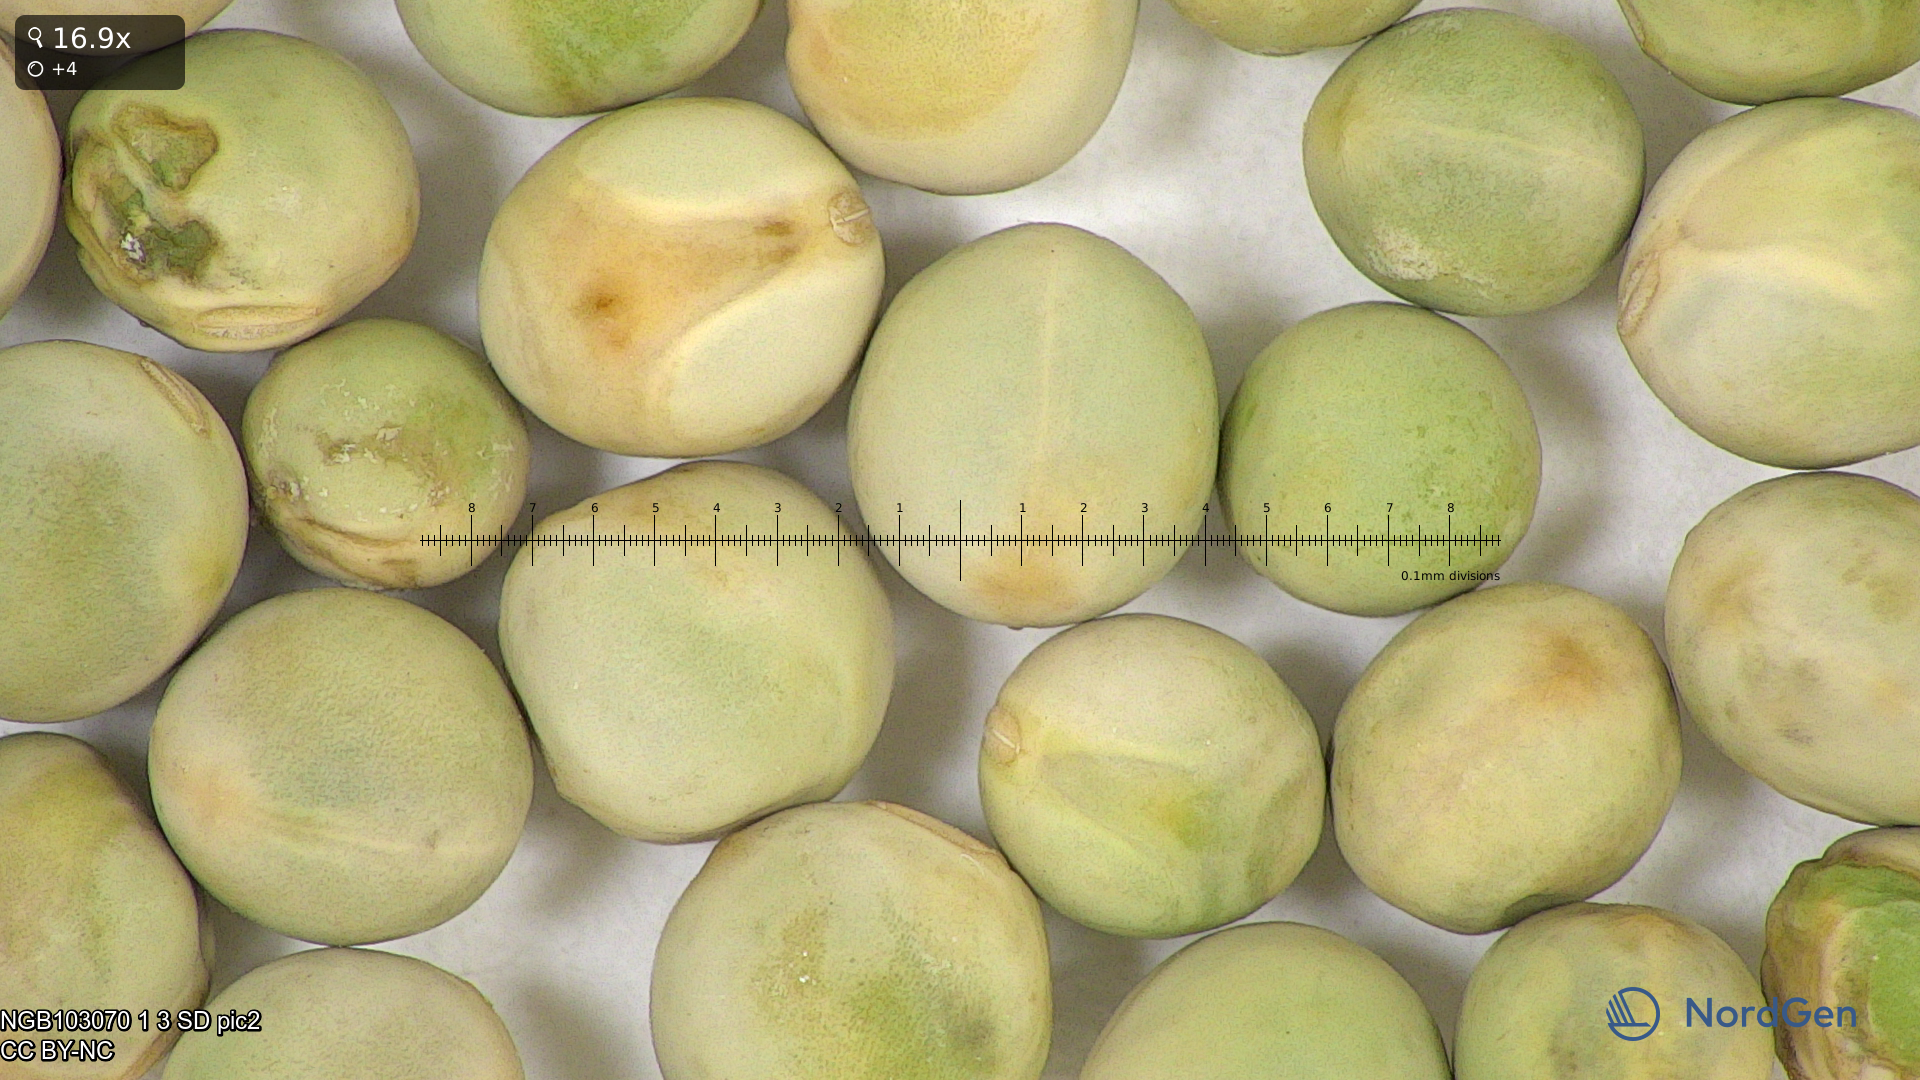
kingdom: Plantae
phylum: Tracheophyta
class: Magnoliopsida
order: Fabales
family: Fabaceae
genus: Lathyrus
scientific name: Lathyrus oleraceus
